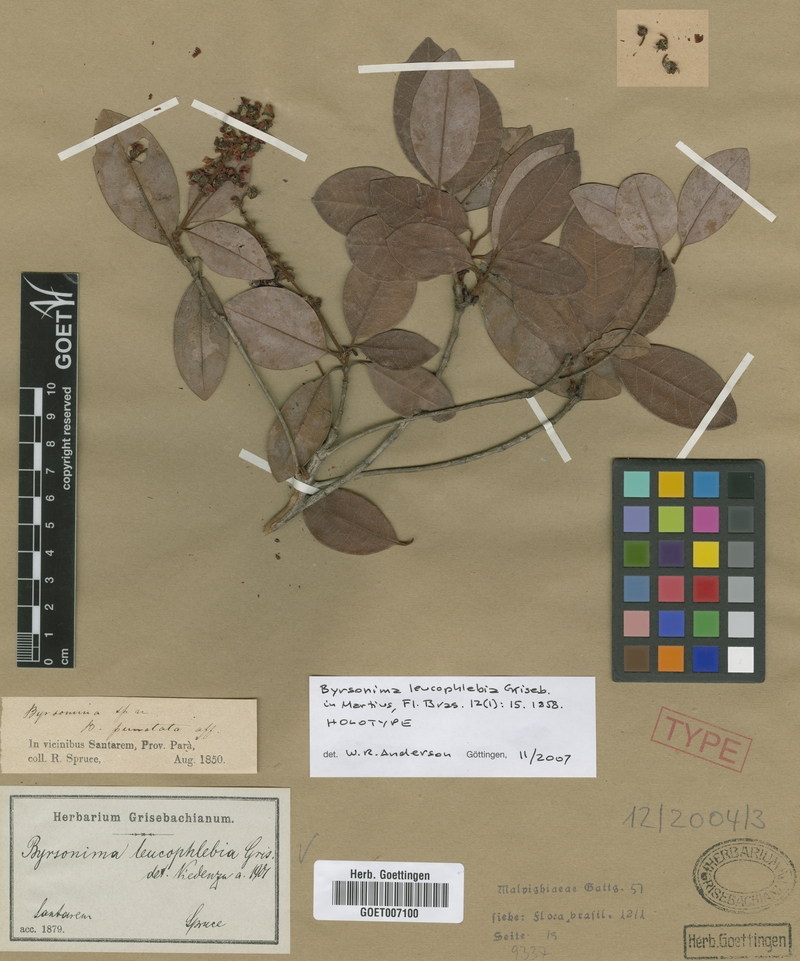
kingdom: Plantae
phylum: Tracheophyta
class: Magnoliopsida
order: Malpighiales
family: Malpighiaceae
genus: Byrsonima
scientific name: Byrsonima leucophlebia
